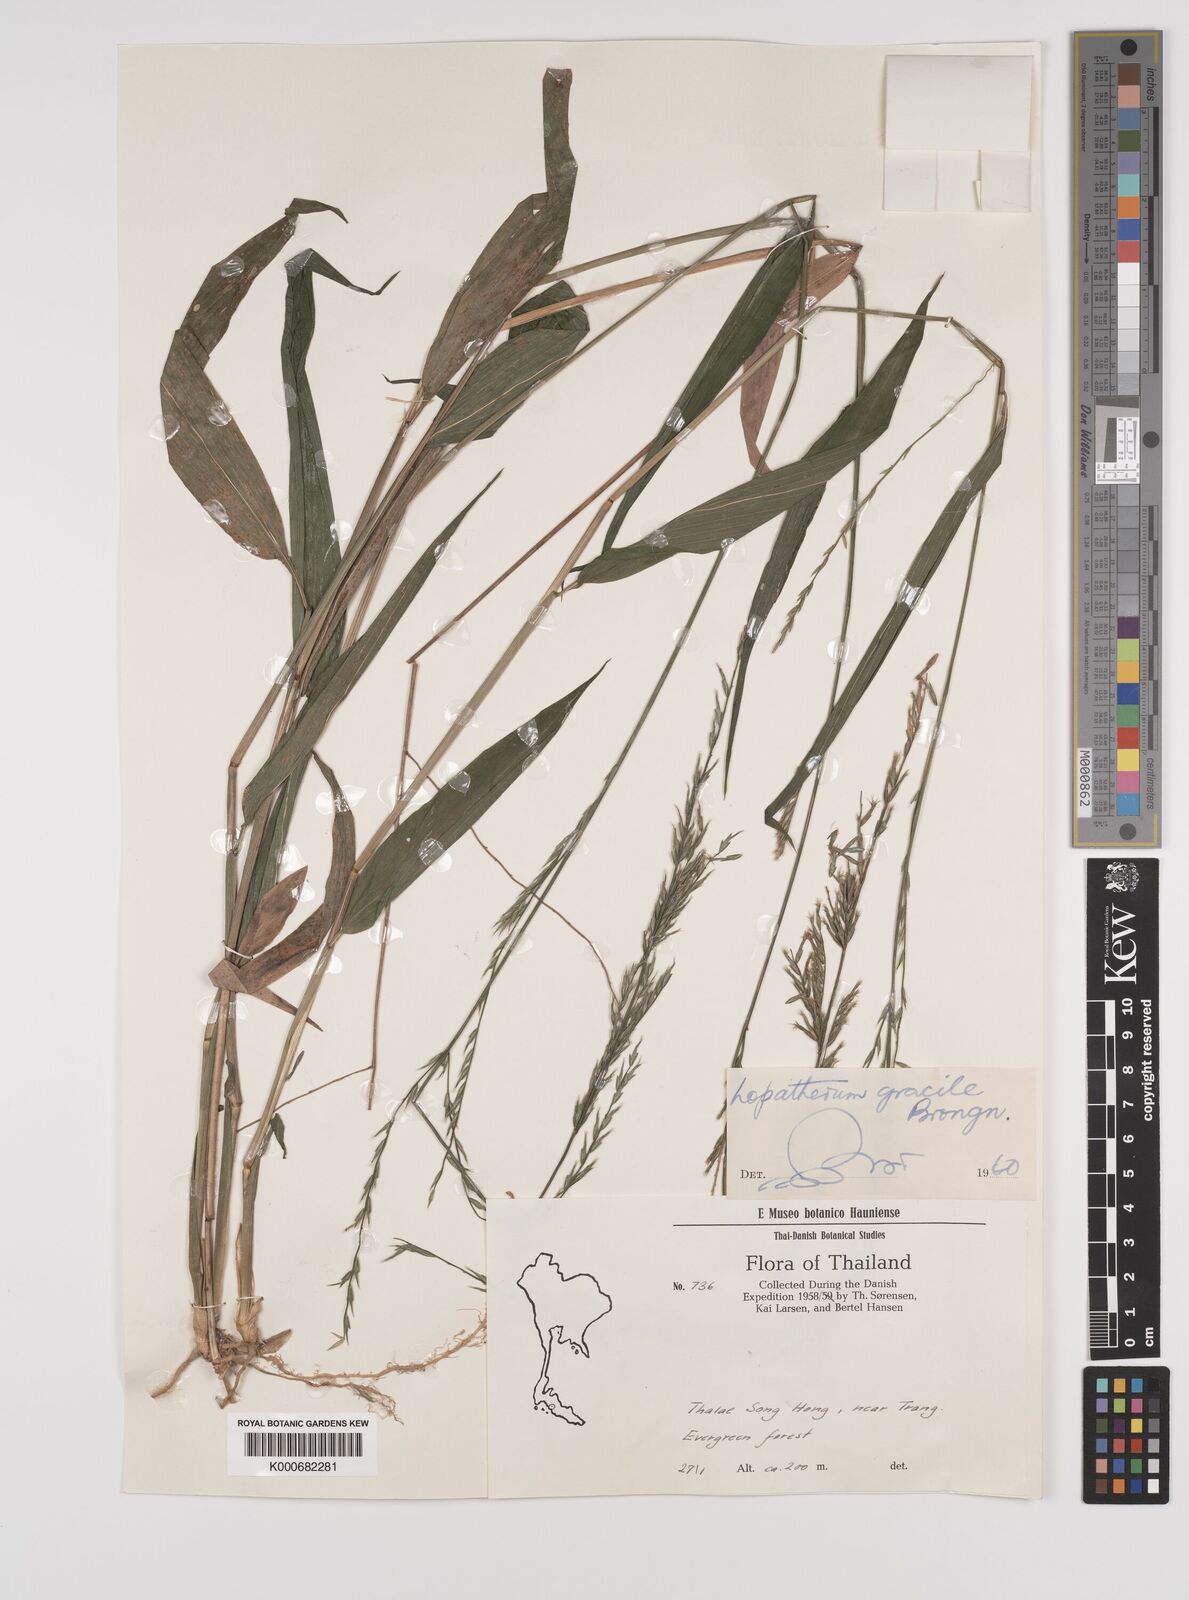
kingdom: Plantae
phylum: Tracheophyta
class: Liliopsida
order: Poales
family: Poaceae
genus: Lophatherum
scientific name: Lophatherum gracile
